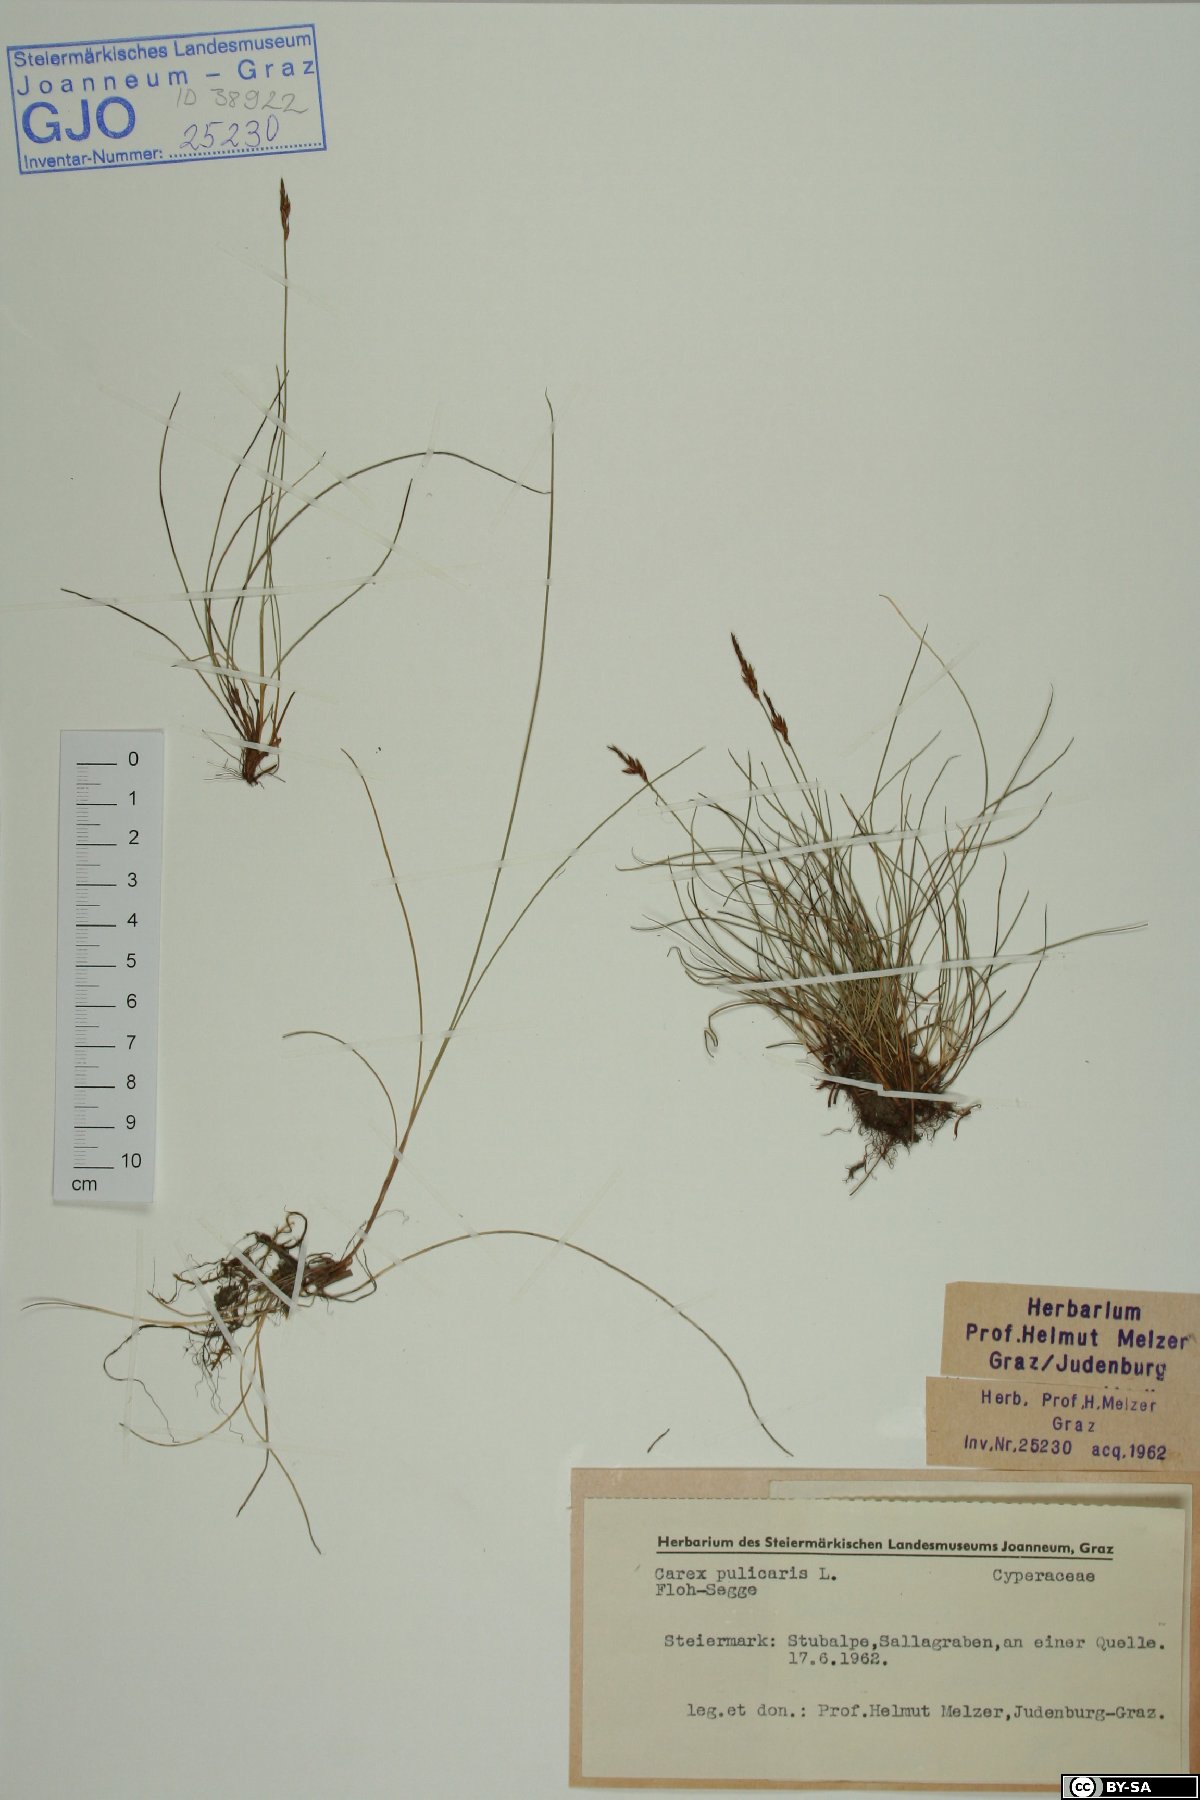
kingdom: Plantae
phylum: Tracheophyta
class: Liliopsida
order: Poales
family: Cyperaceae
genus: Carex
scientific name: Carex pulicaris
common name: Flea sedge
